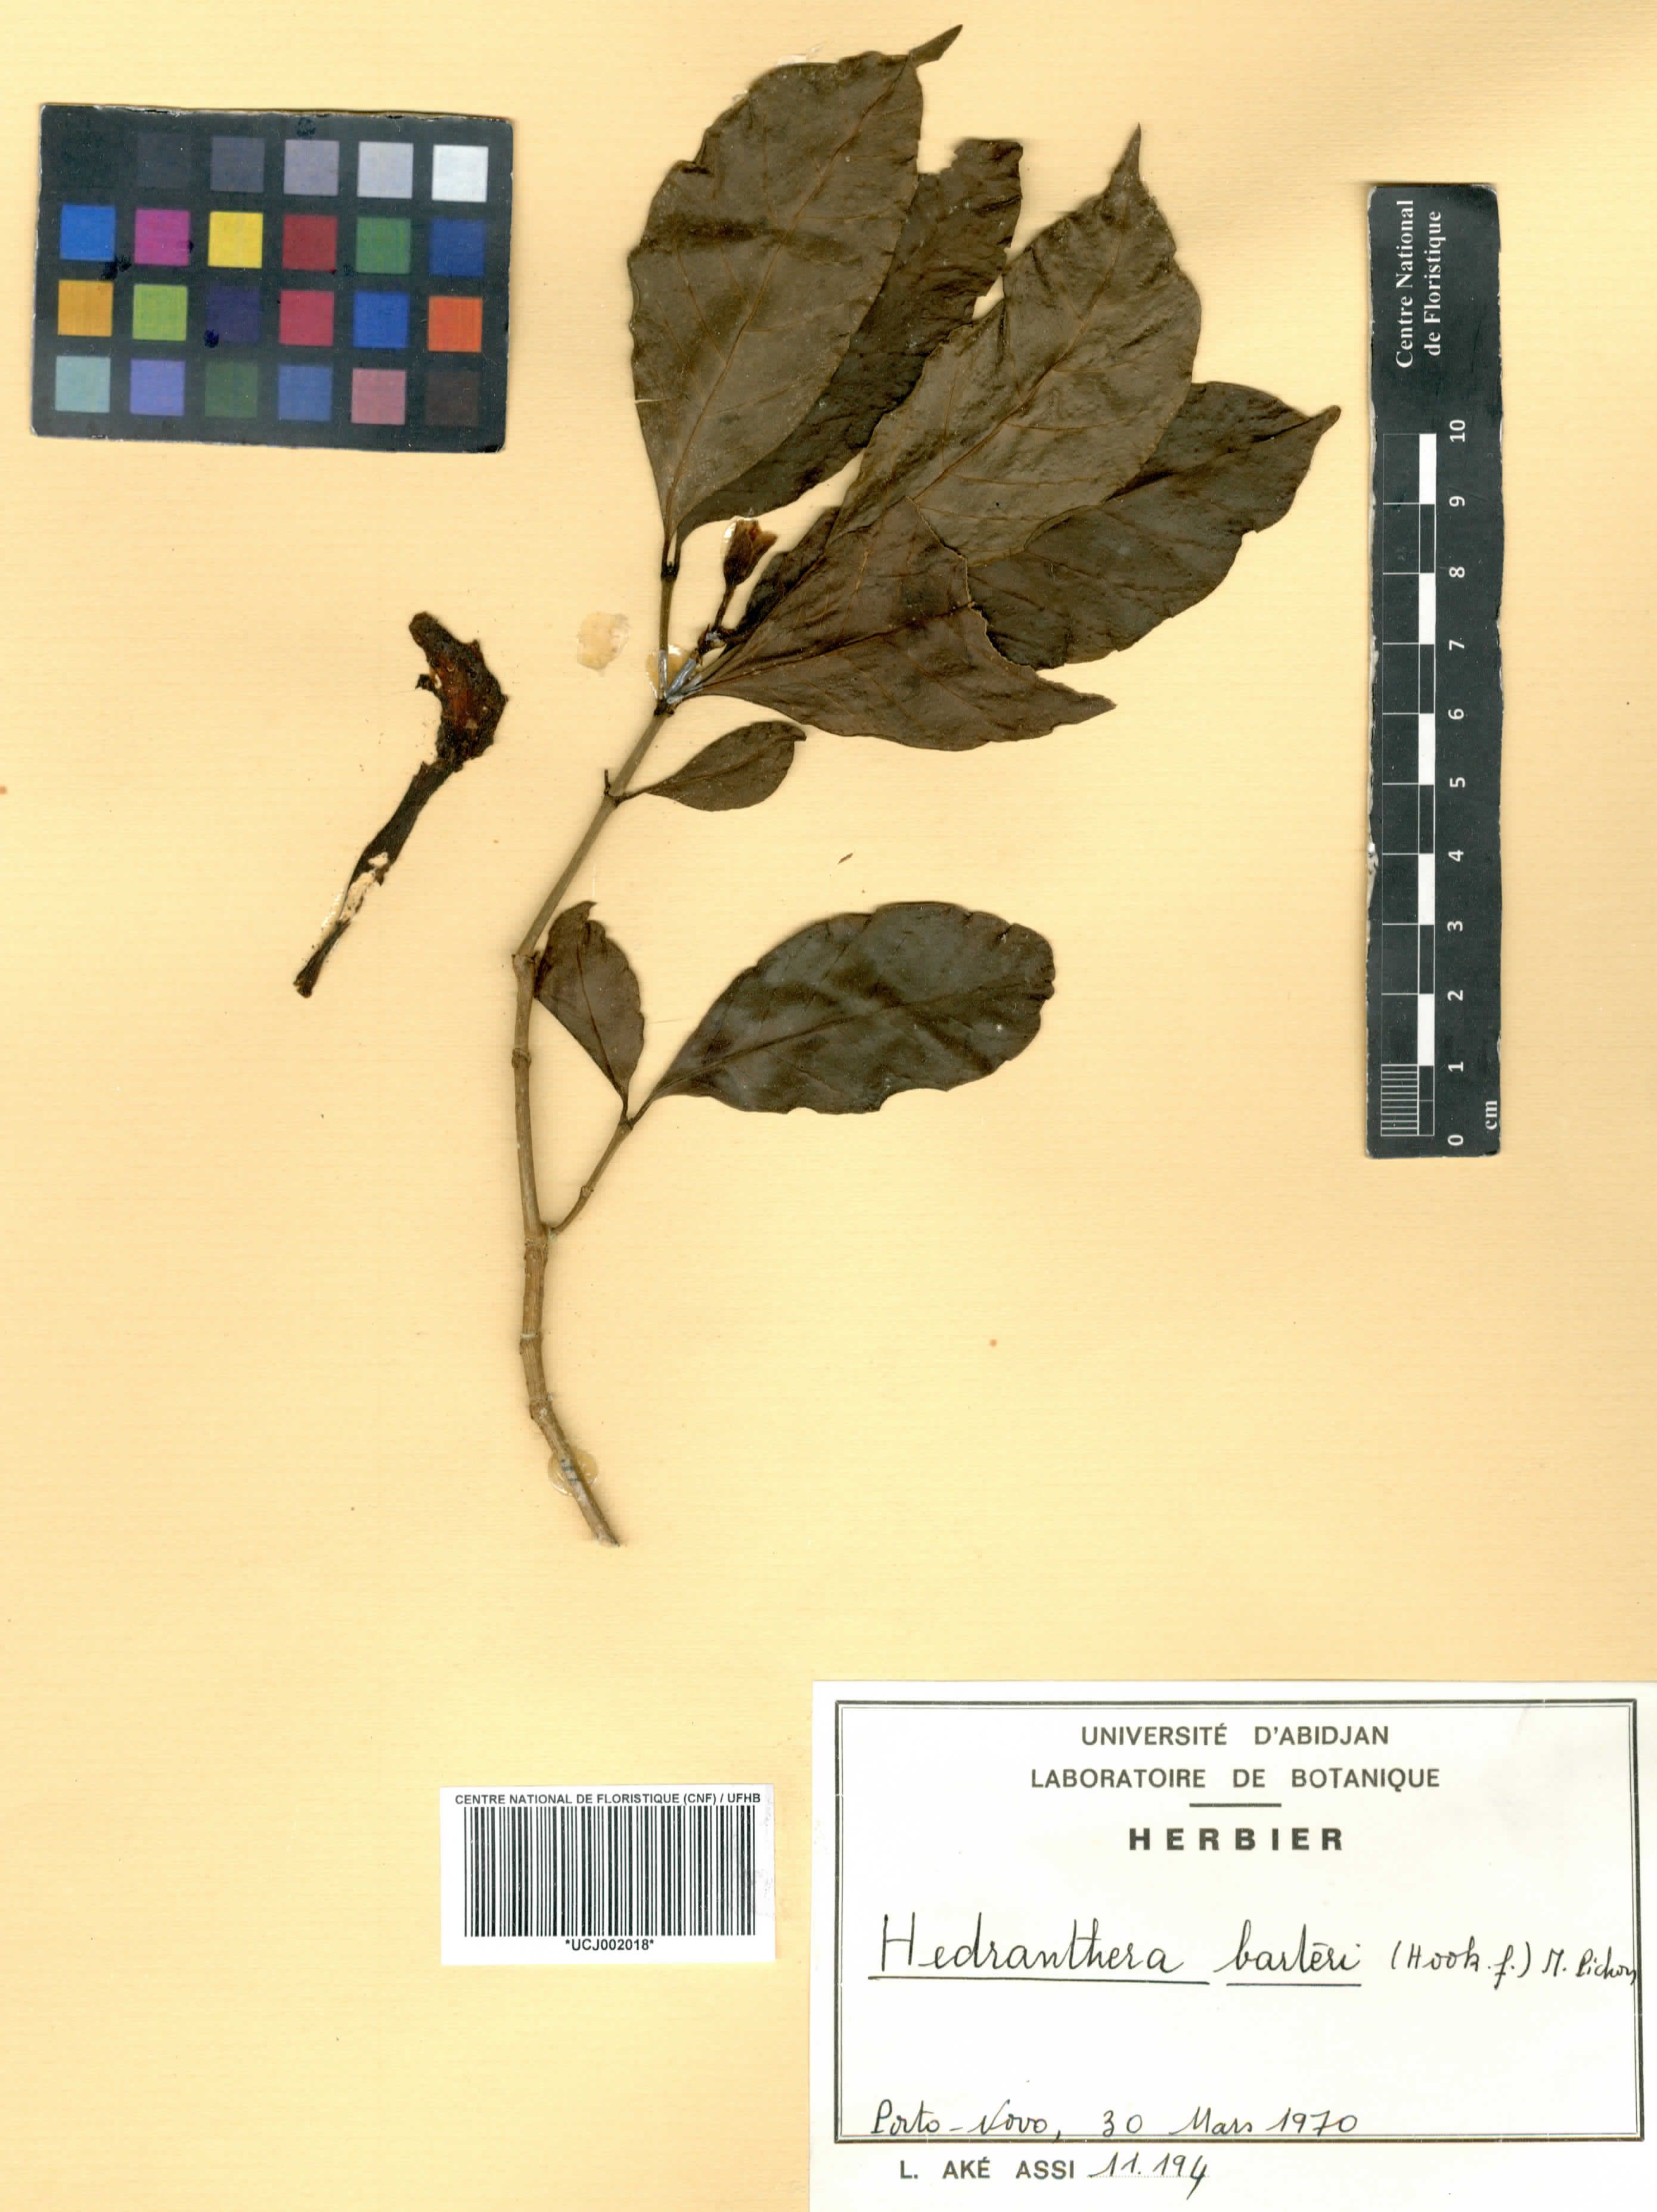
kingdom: Plantae
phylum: Tracheophyta
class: Magnoliopsida
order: Gentianales
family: Apocynaceae
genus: Callichilia
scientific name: Callichilia barteri
